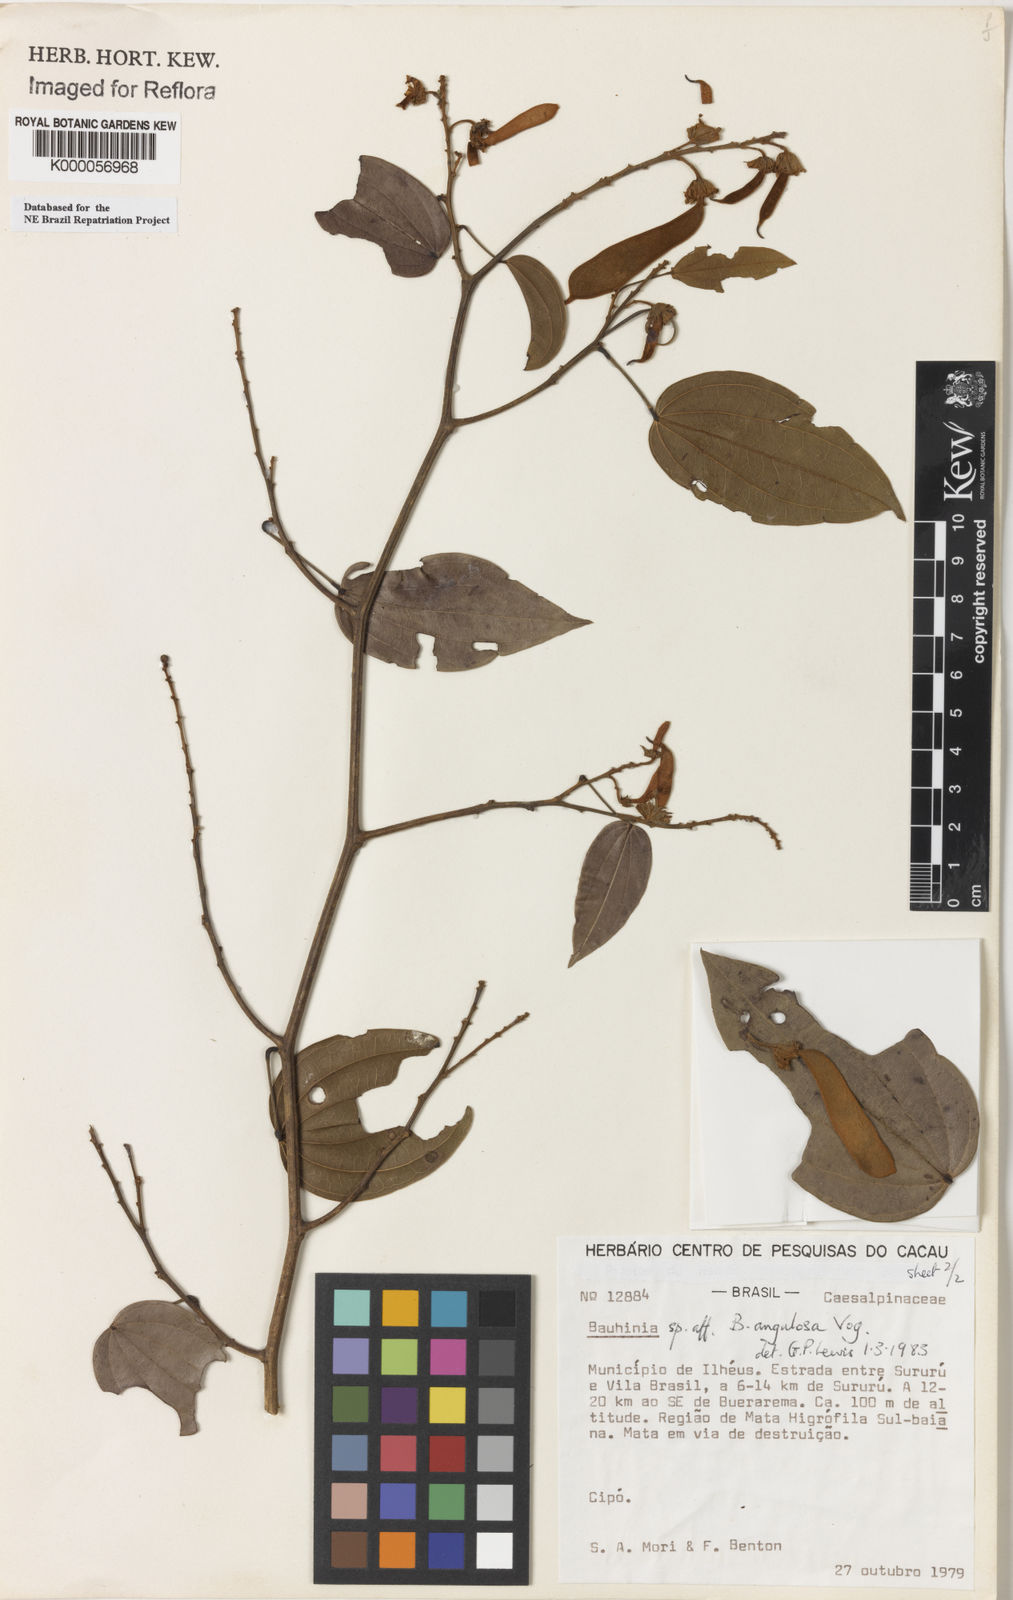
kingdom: Plantae
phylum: Tracheophyta
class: Magnoliopsida
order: Fabales
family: Fabaceae
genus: Schnella
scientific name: Schnella angulosa
